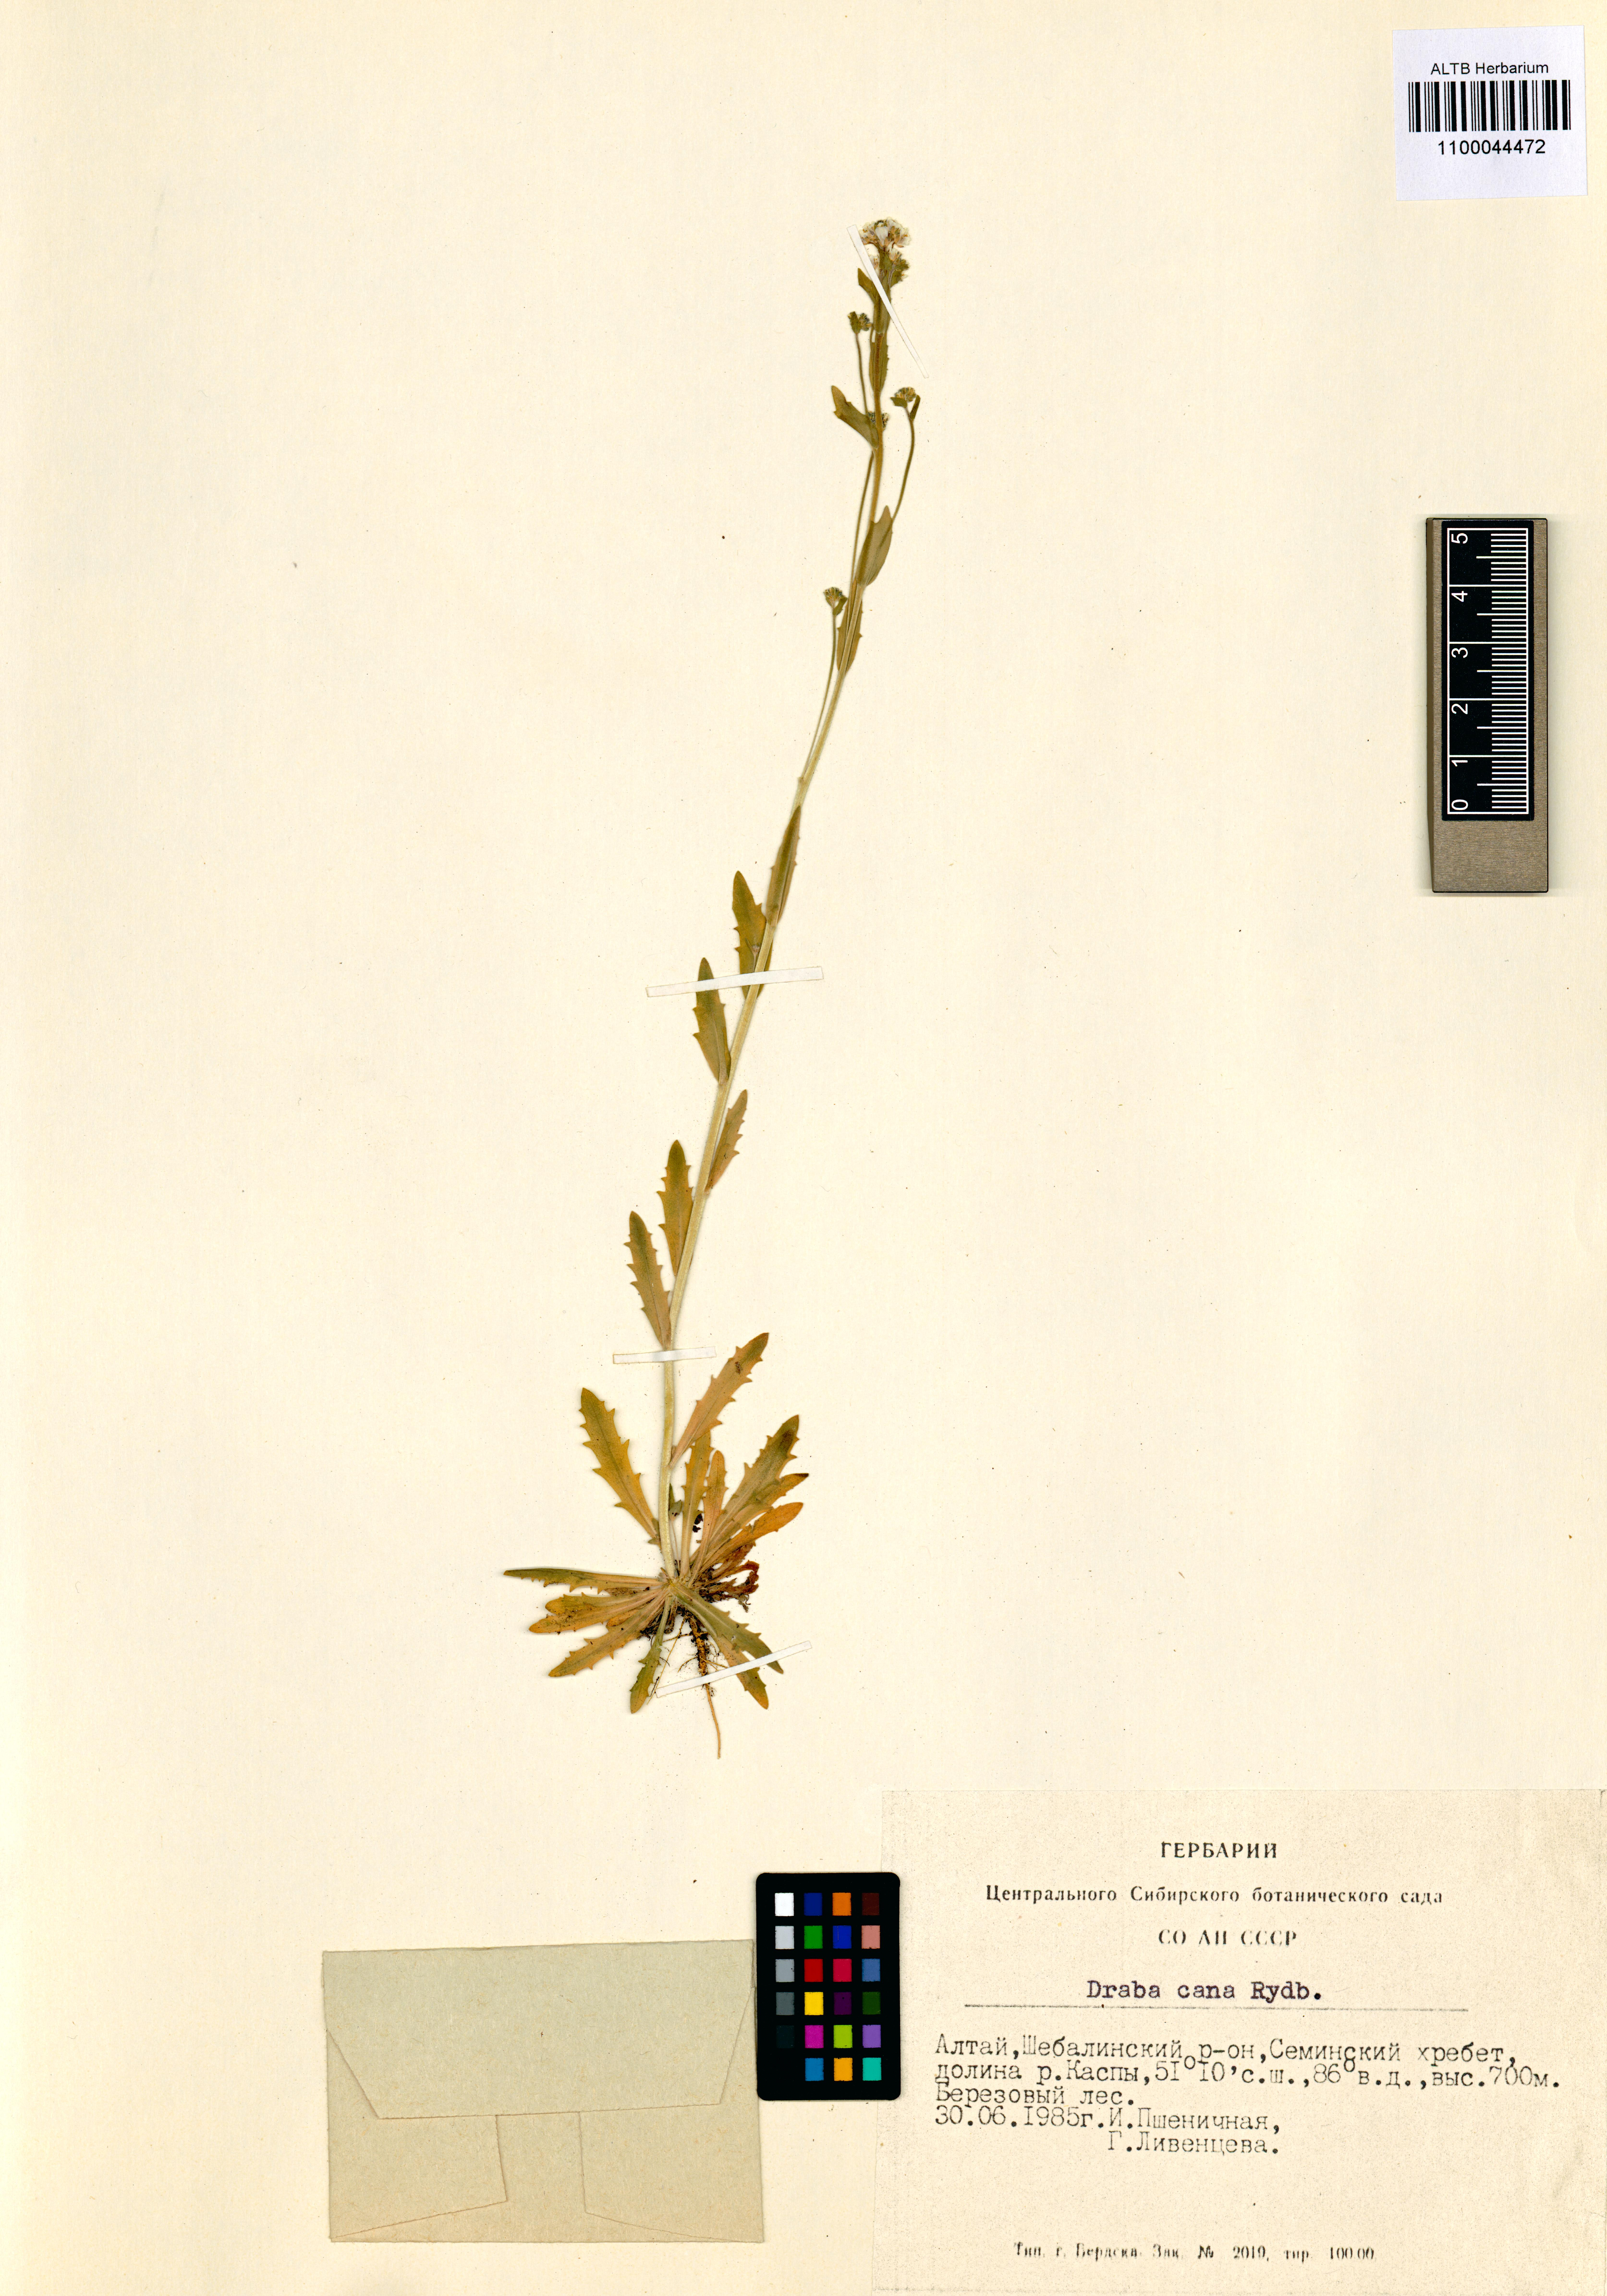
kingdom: Plantae
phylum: Tracheophyta
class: Magnoliopsida
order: Brassicales
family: Brassicaceae
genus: Draba
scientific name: Draba cana
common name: Hoary draba
